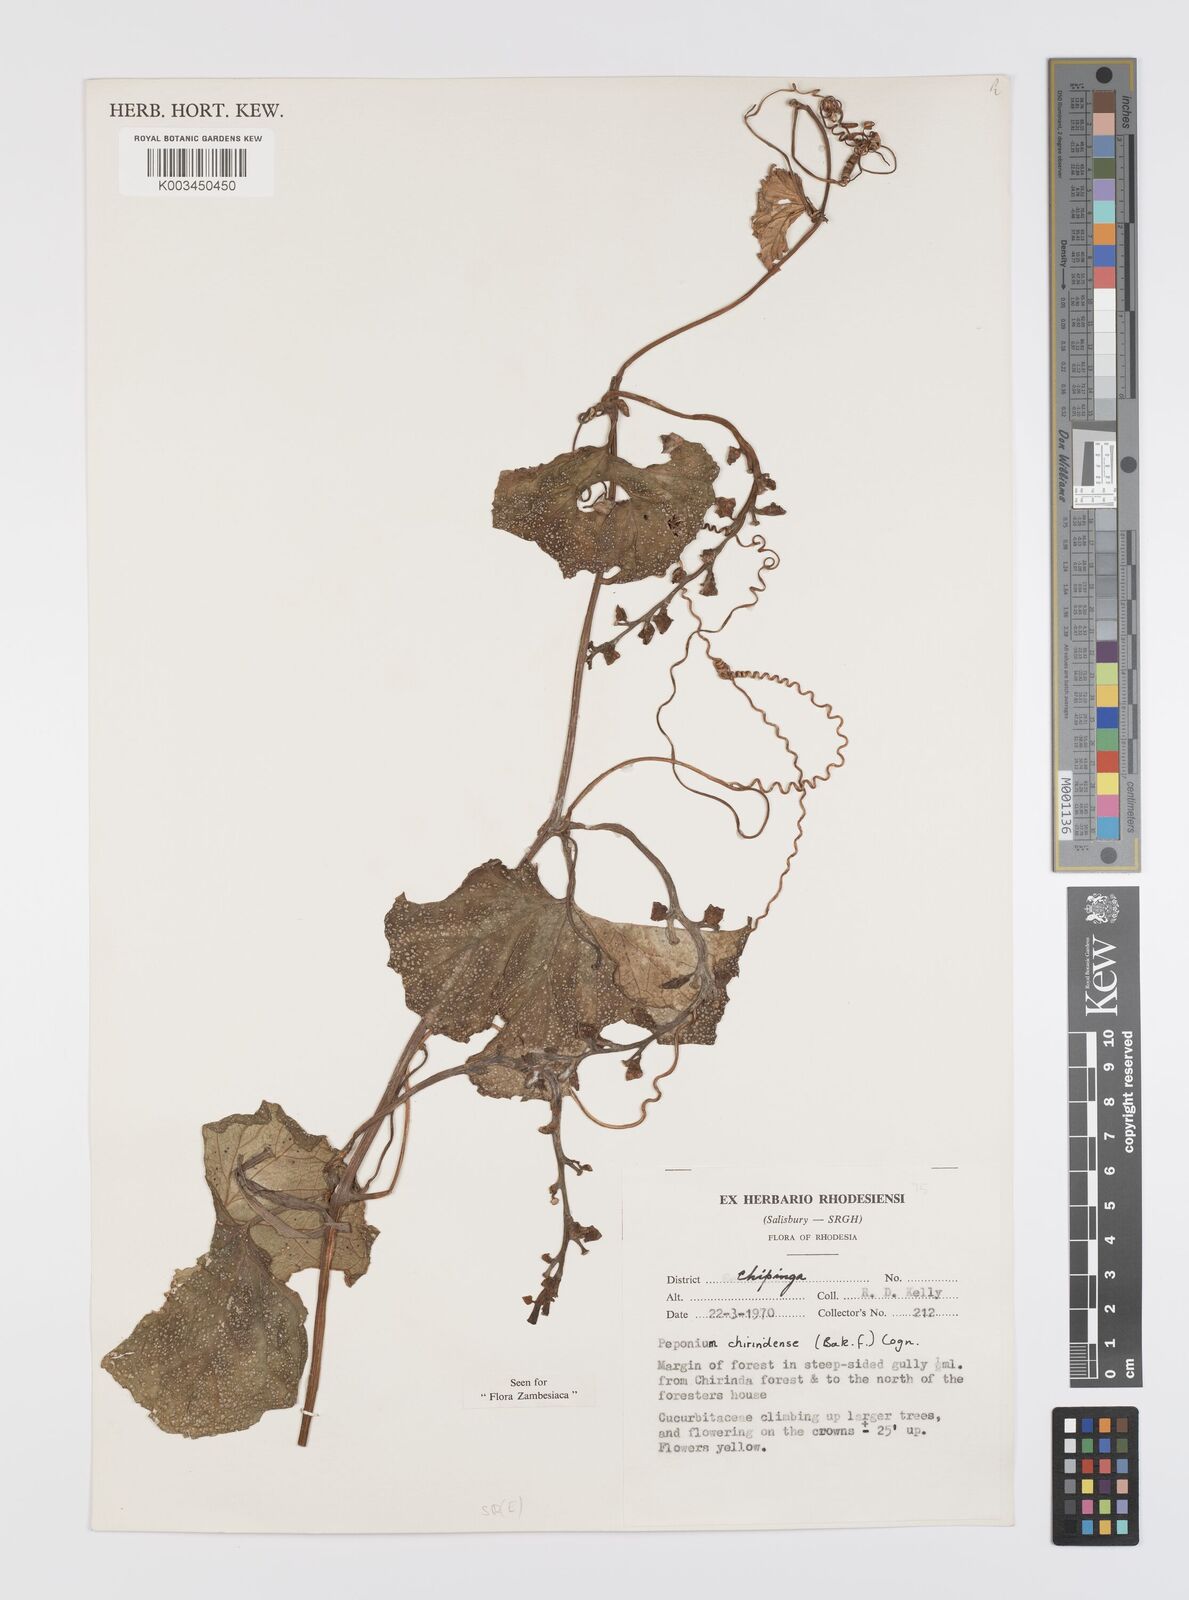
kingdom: Plantae
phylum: Tracheophyta
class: Magnoliopsida
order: Cucurbitales
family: Cucurbitaceae
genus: Peponium
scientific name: Peponium chirindense
